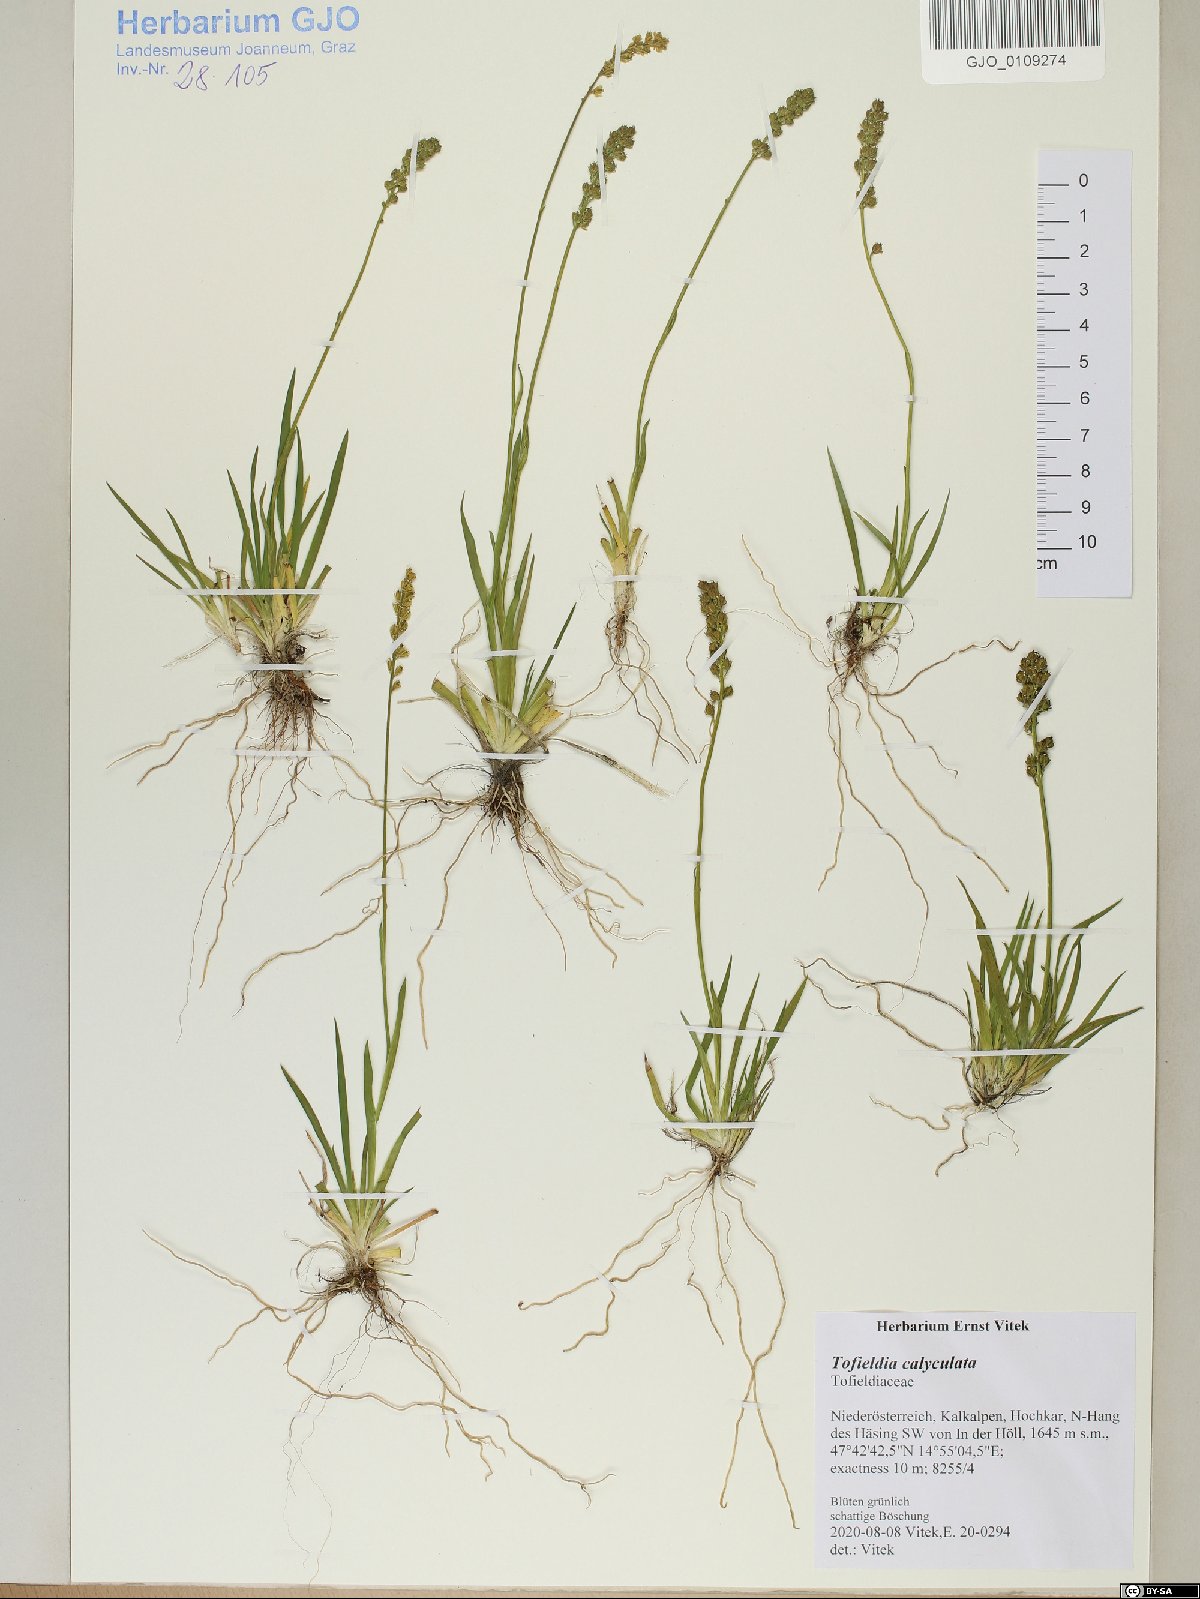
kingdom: Plantae
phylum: Tracheophyta
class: Liliopsida
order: Alismatales
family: Tofieldiaceae
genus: Tofieldia
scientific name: Tofieldia calyculata
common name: German-asphodel
